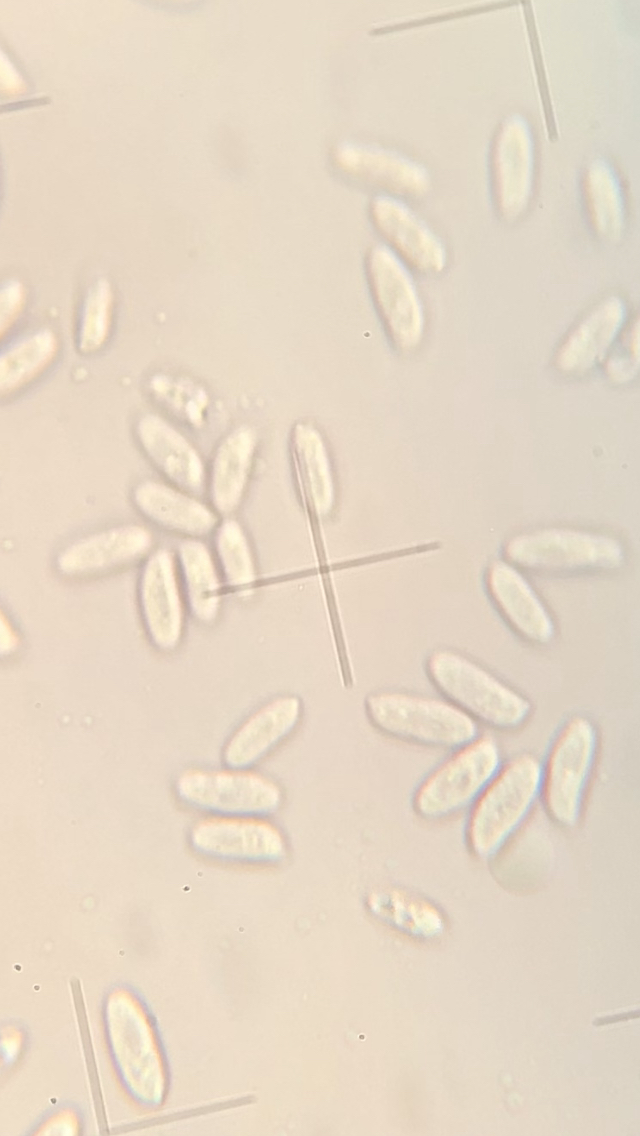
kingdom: Fungi
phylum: Basidiomycota
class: Agaricomycetes
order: Agaricales
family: Physalacriaceae
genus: Flammulina
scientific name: Flammulina elastica
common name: pile-fløjlsfod
